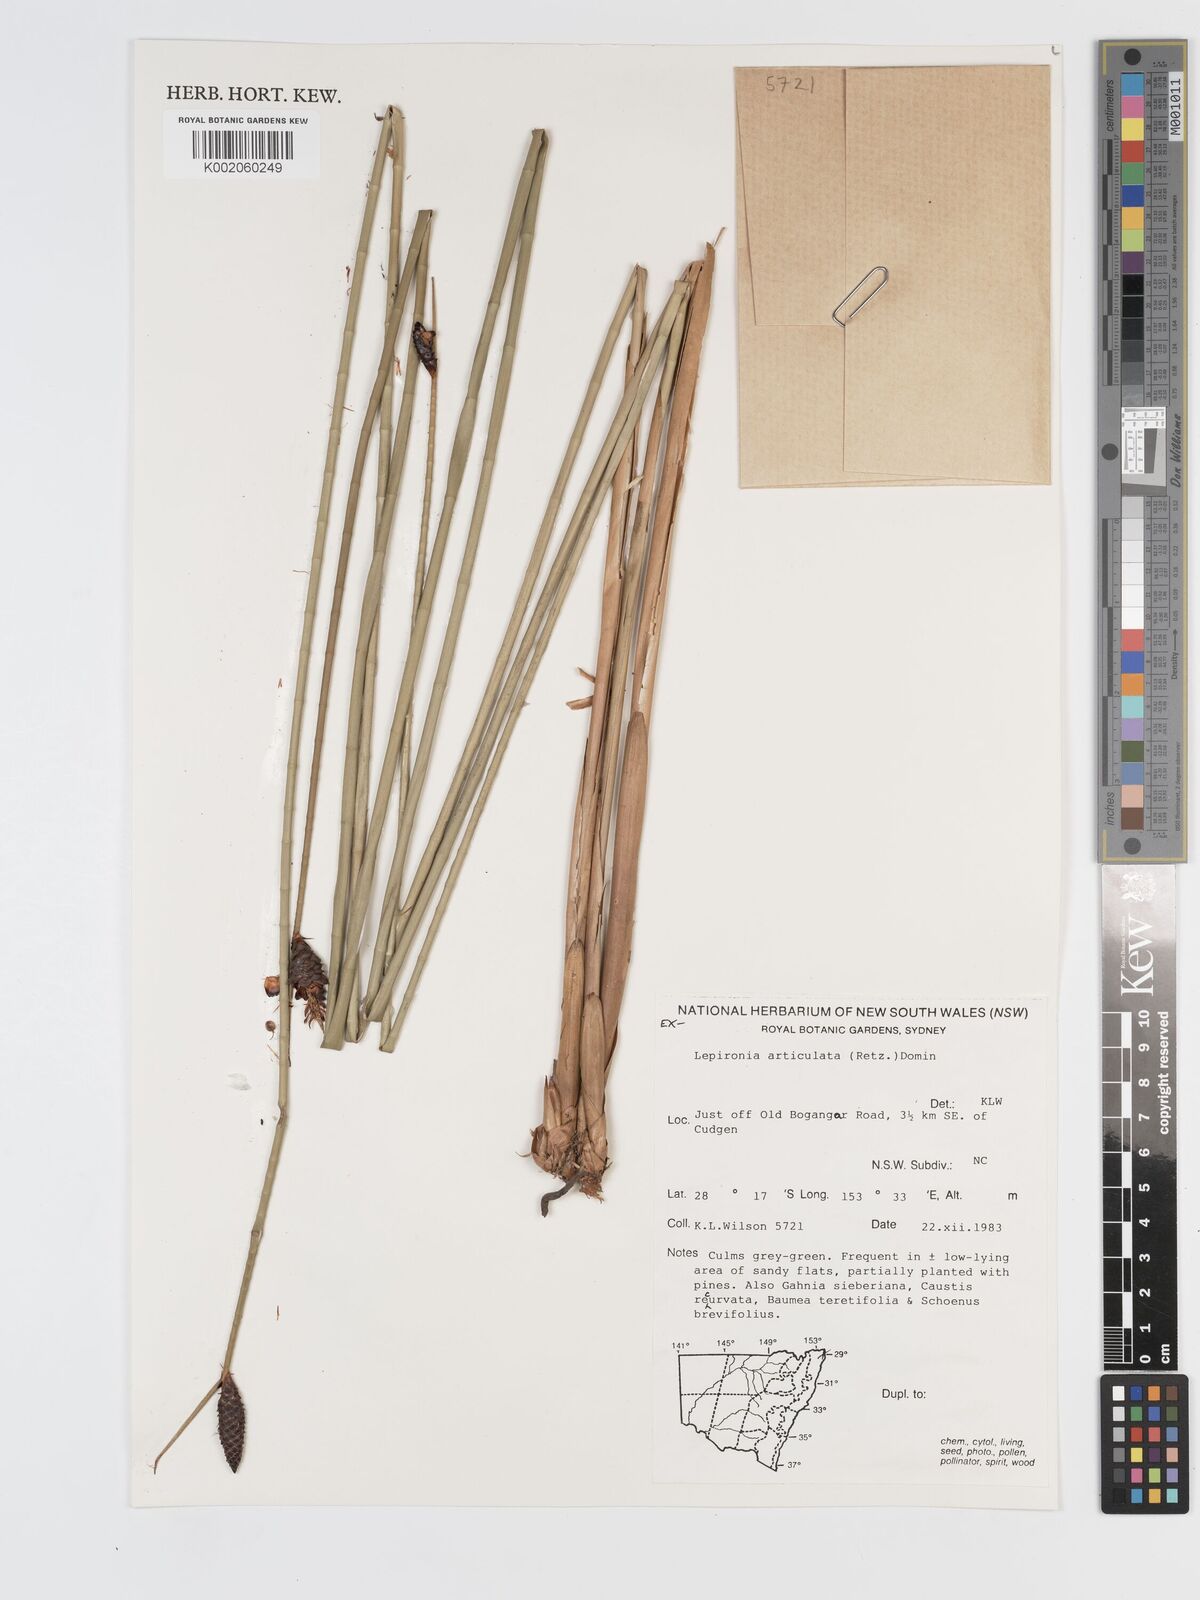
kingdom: Plantae
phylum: Tracheophyta
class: Liliopsida
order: Poales
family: Cyperaceae
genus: Lepironia
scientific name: Lepironia articulata
